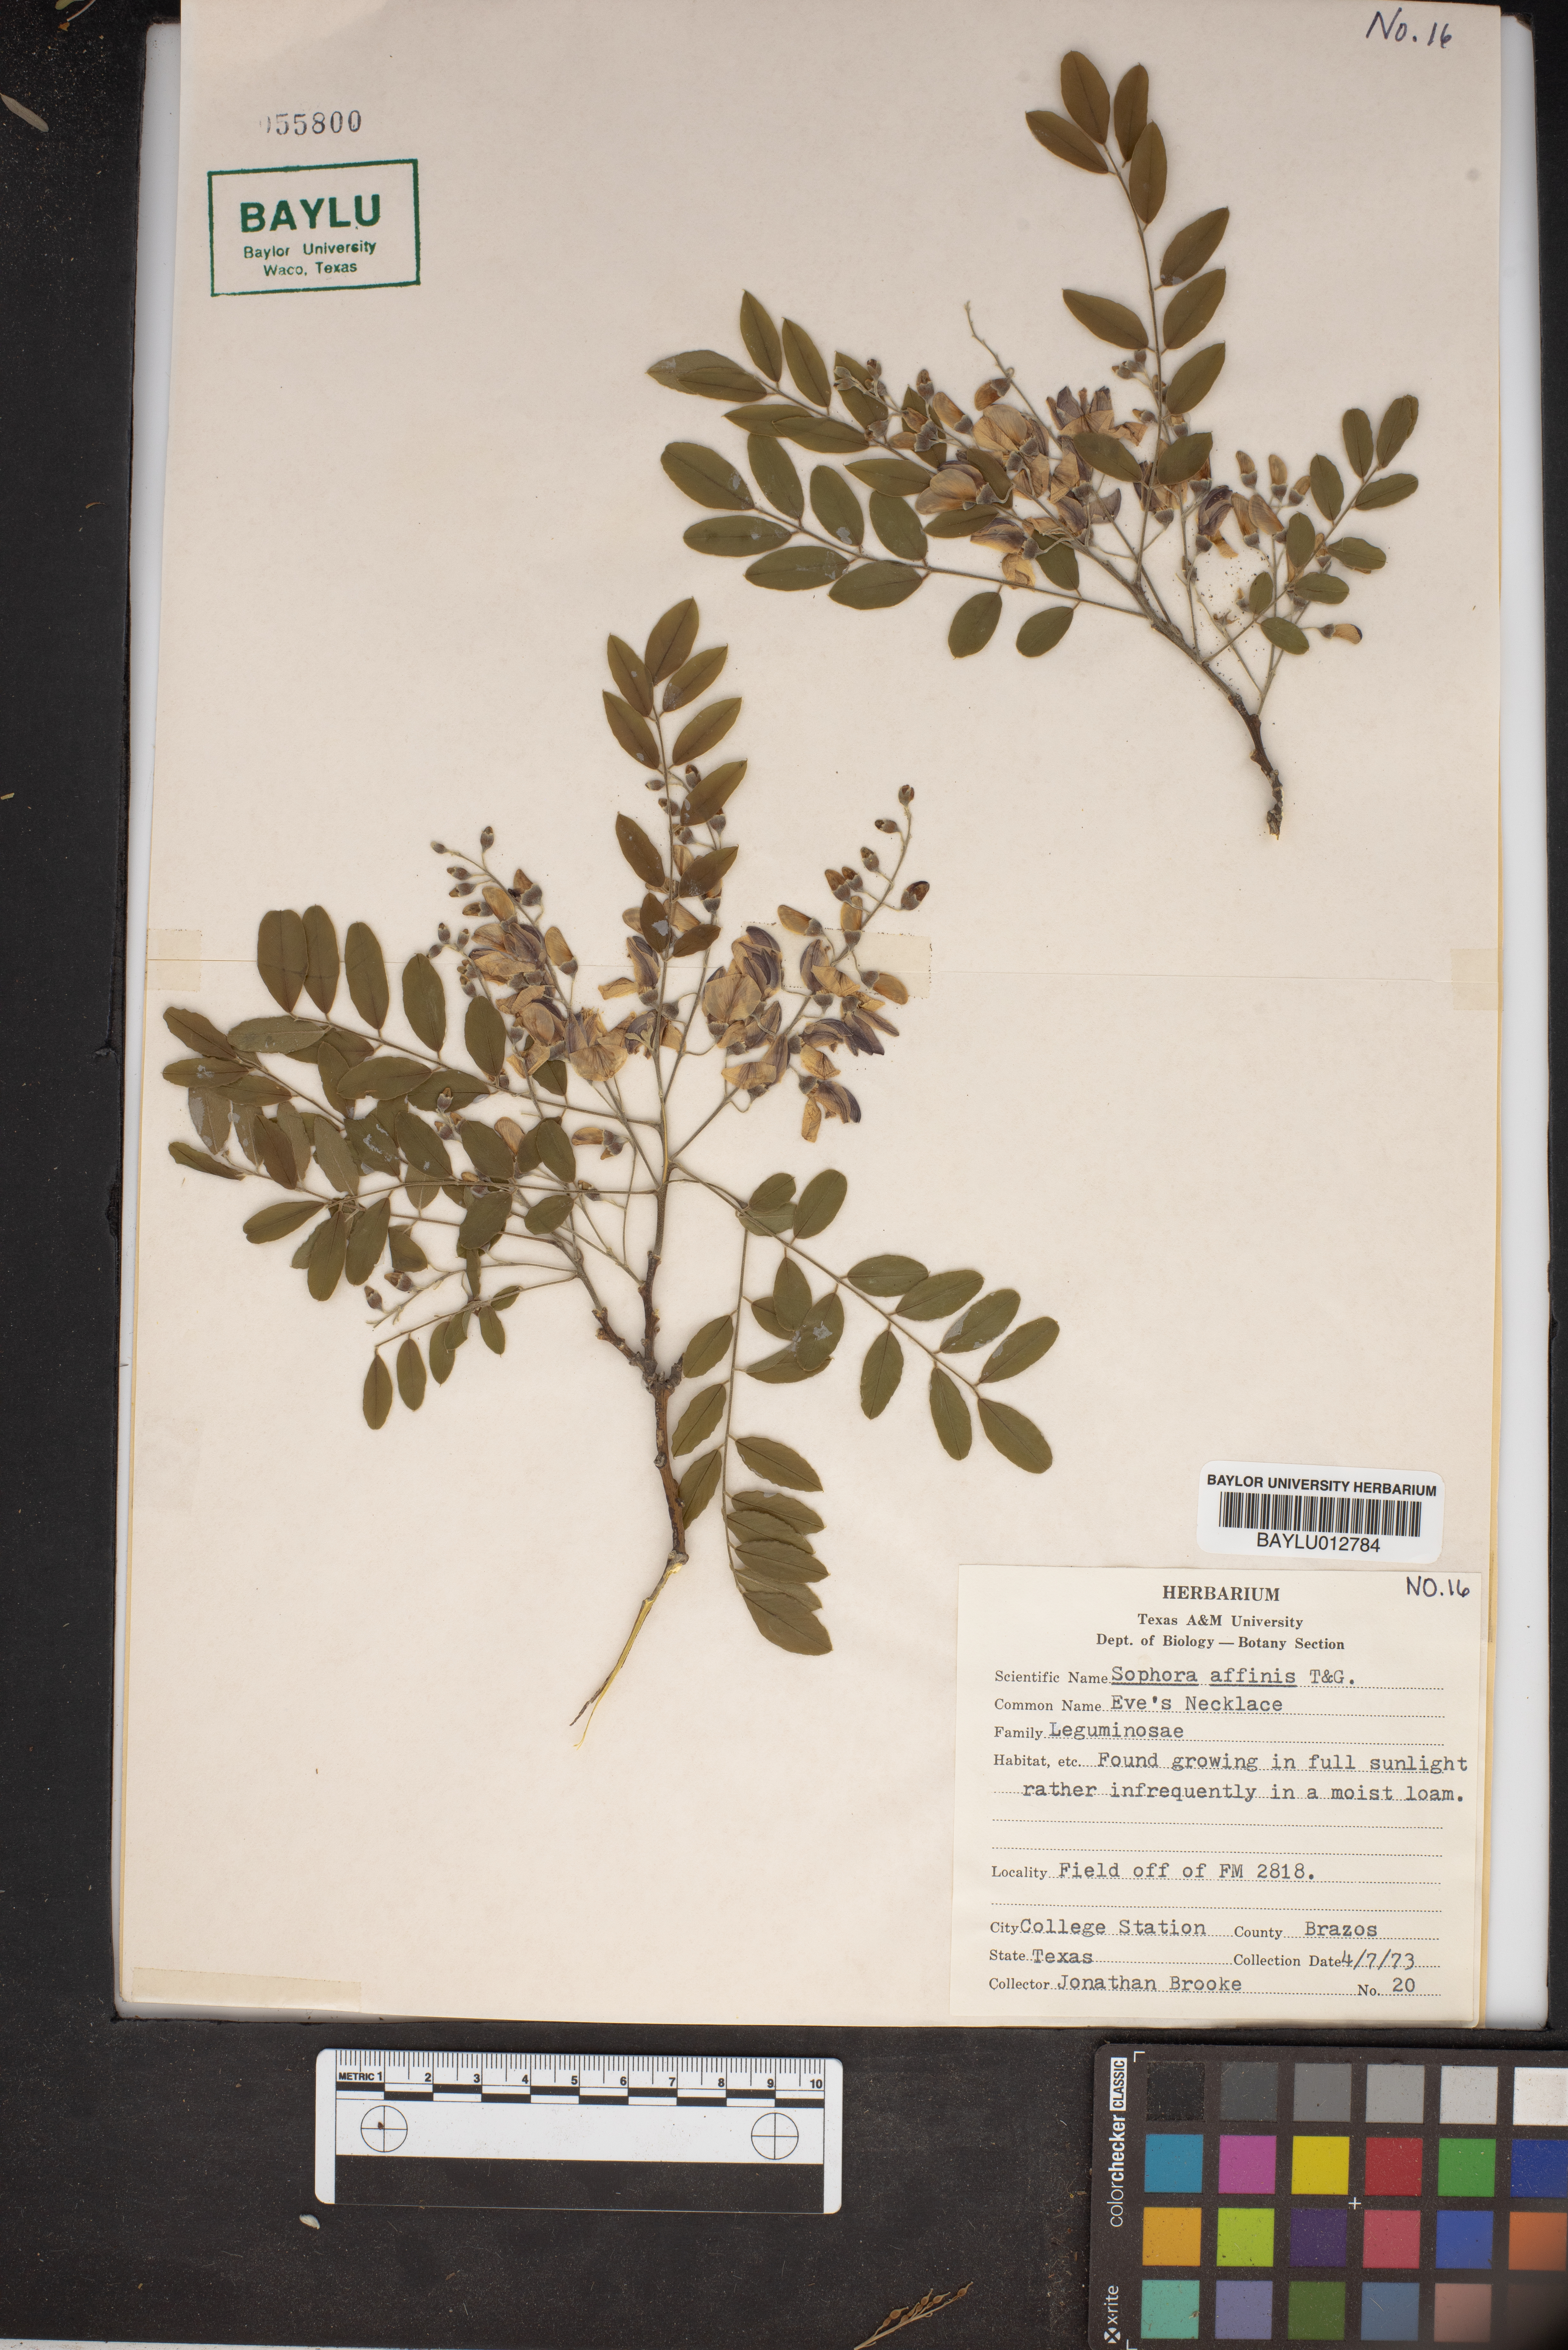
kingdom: Plantae
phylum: Tracheophyta
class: Magnoliopsida
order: Fabales
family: Fabaceae
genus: Styphnolobium
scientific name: Styphnolobium affine
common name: Texas sophora
